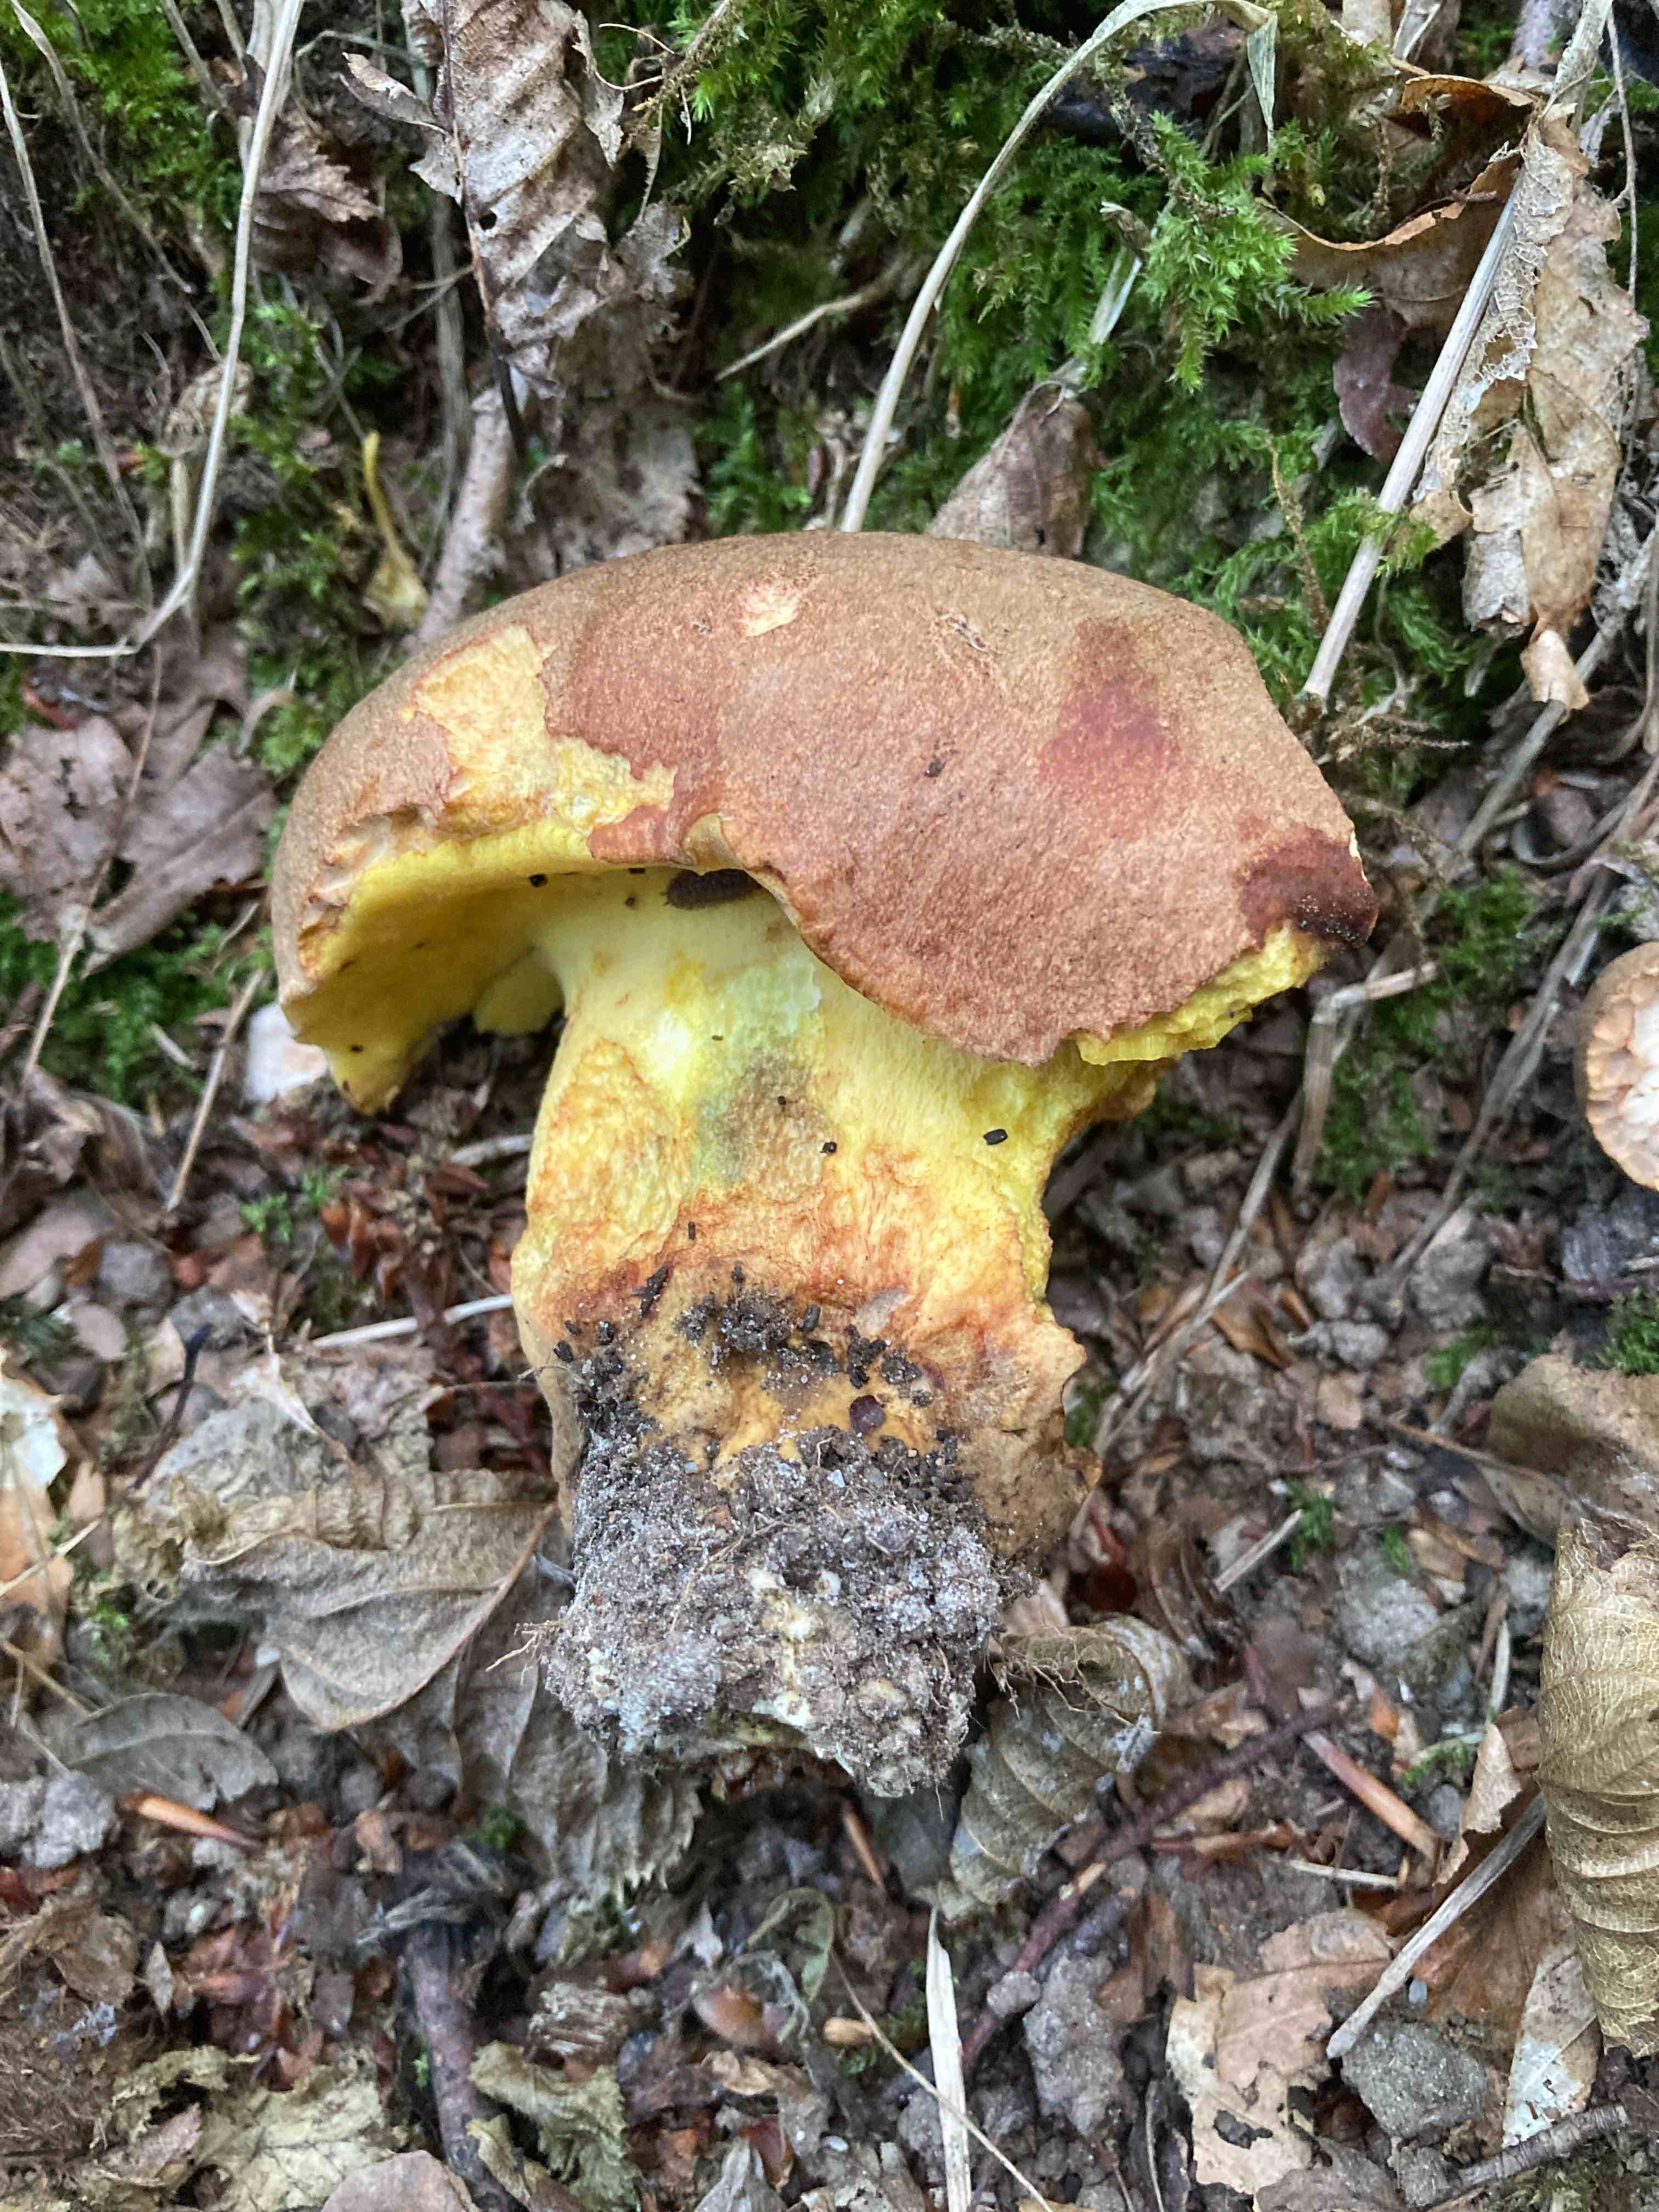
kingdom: Fungi
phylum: Basidiomycota
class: Agaricomycetes
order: Boletales
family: Boletaceae
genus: Butyriboletus
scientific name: Butyriboletus appendiculatus
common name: tenstokket rørhat
